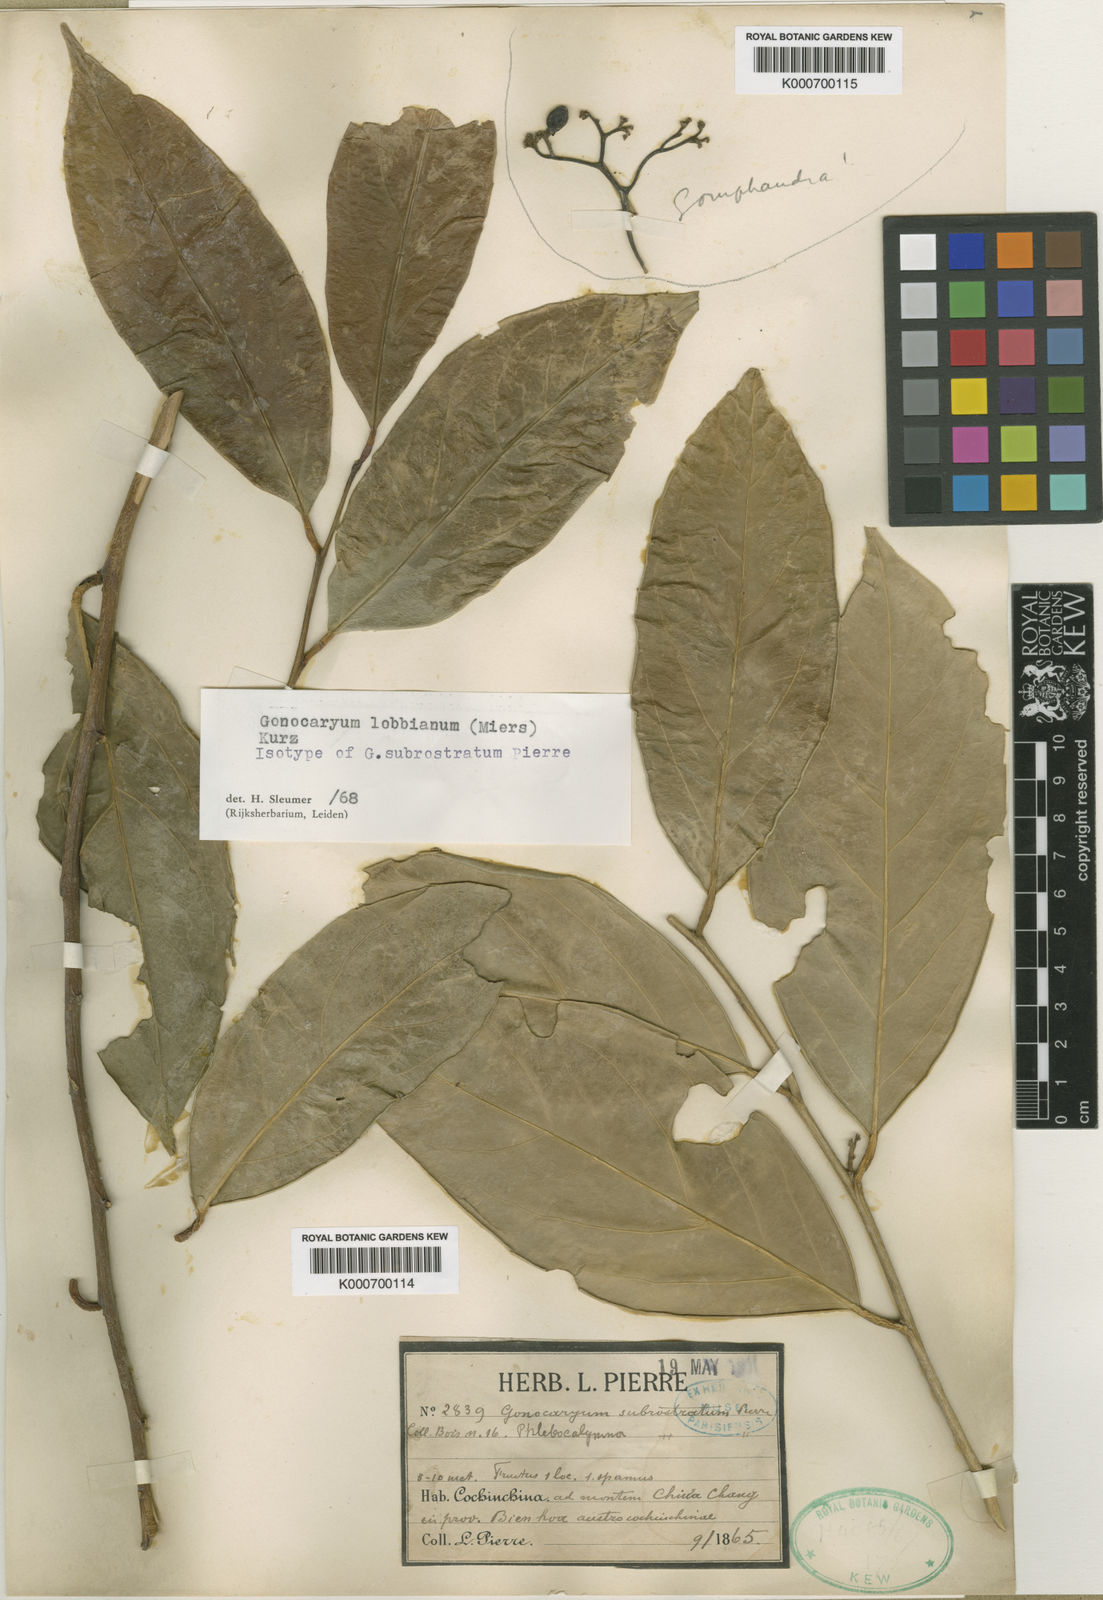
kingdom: Plantae
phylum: Tracheophyta
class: Magnoliopsida
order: Cardiopteridales
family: Cardiopteridaceae
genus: Gonocaryum
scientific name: Gonocaryum lobbianum
